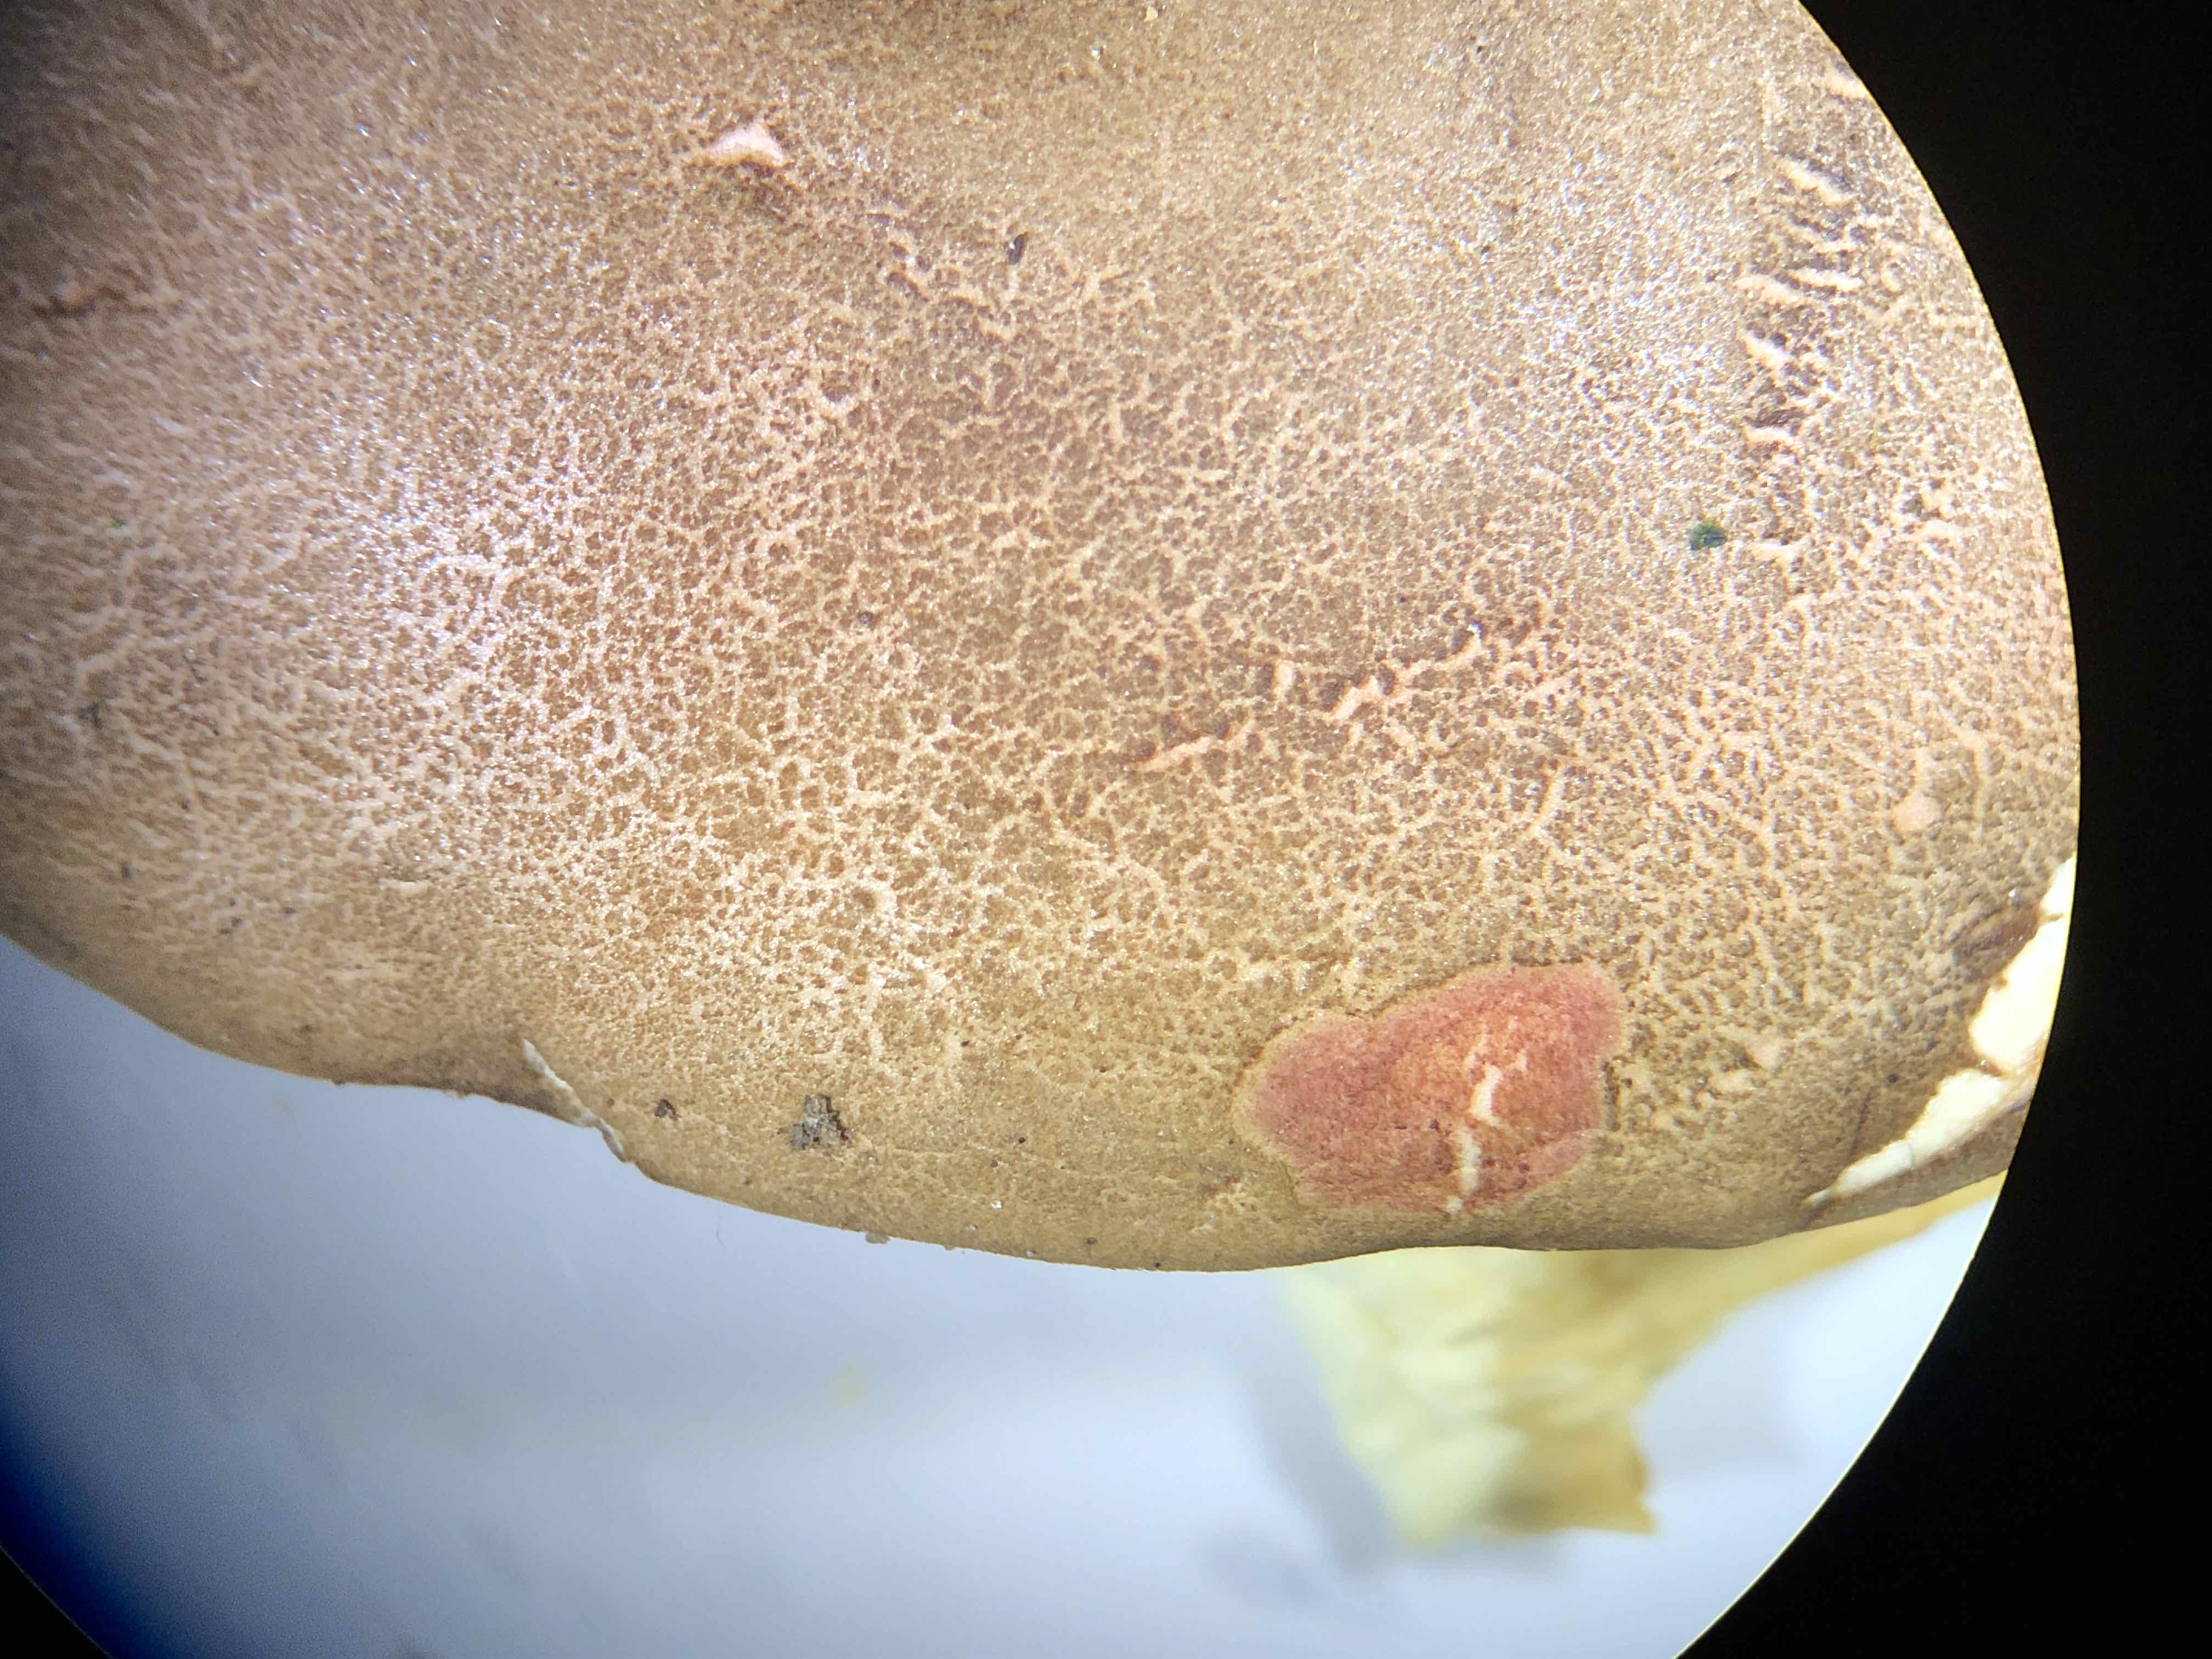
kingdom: Fungi
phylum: Basidiomycota
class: Agaricomycetes
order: Boletales
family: Boletaceae
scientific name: Boletaceae
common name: rørhatfamilien
